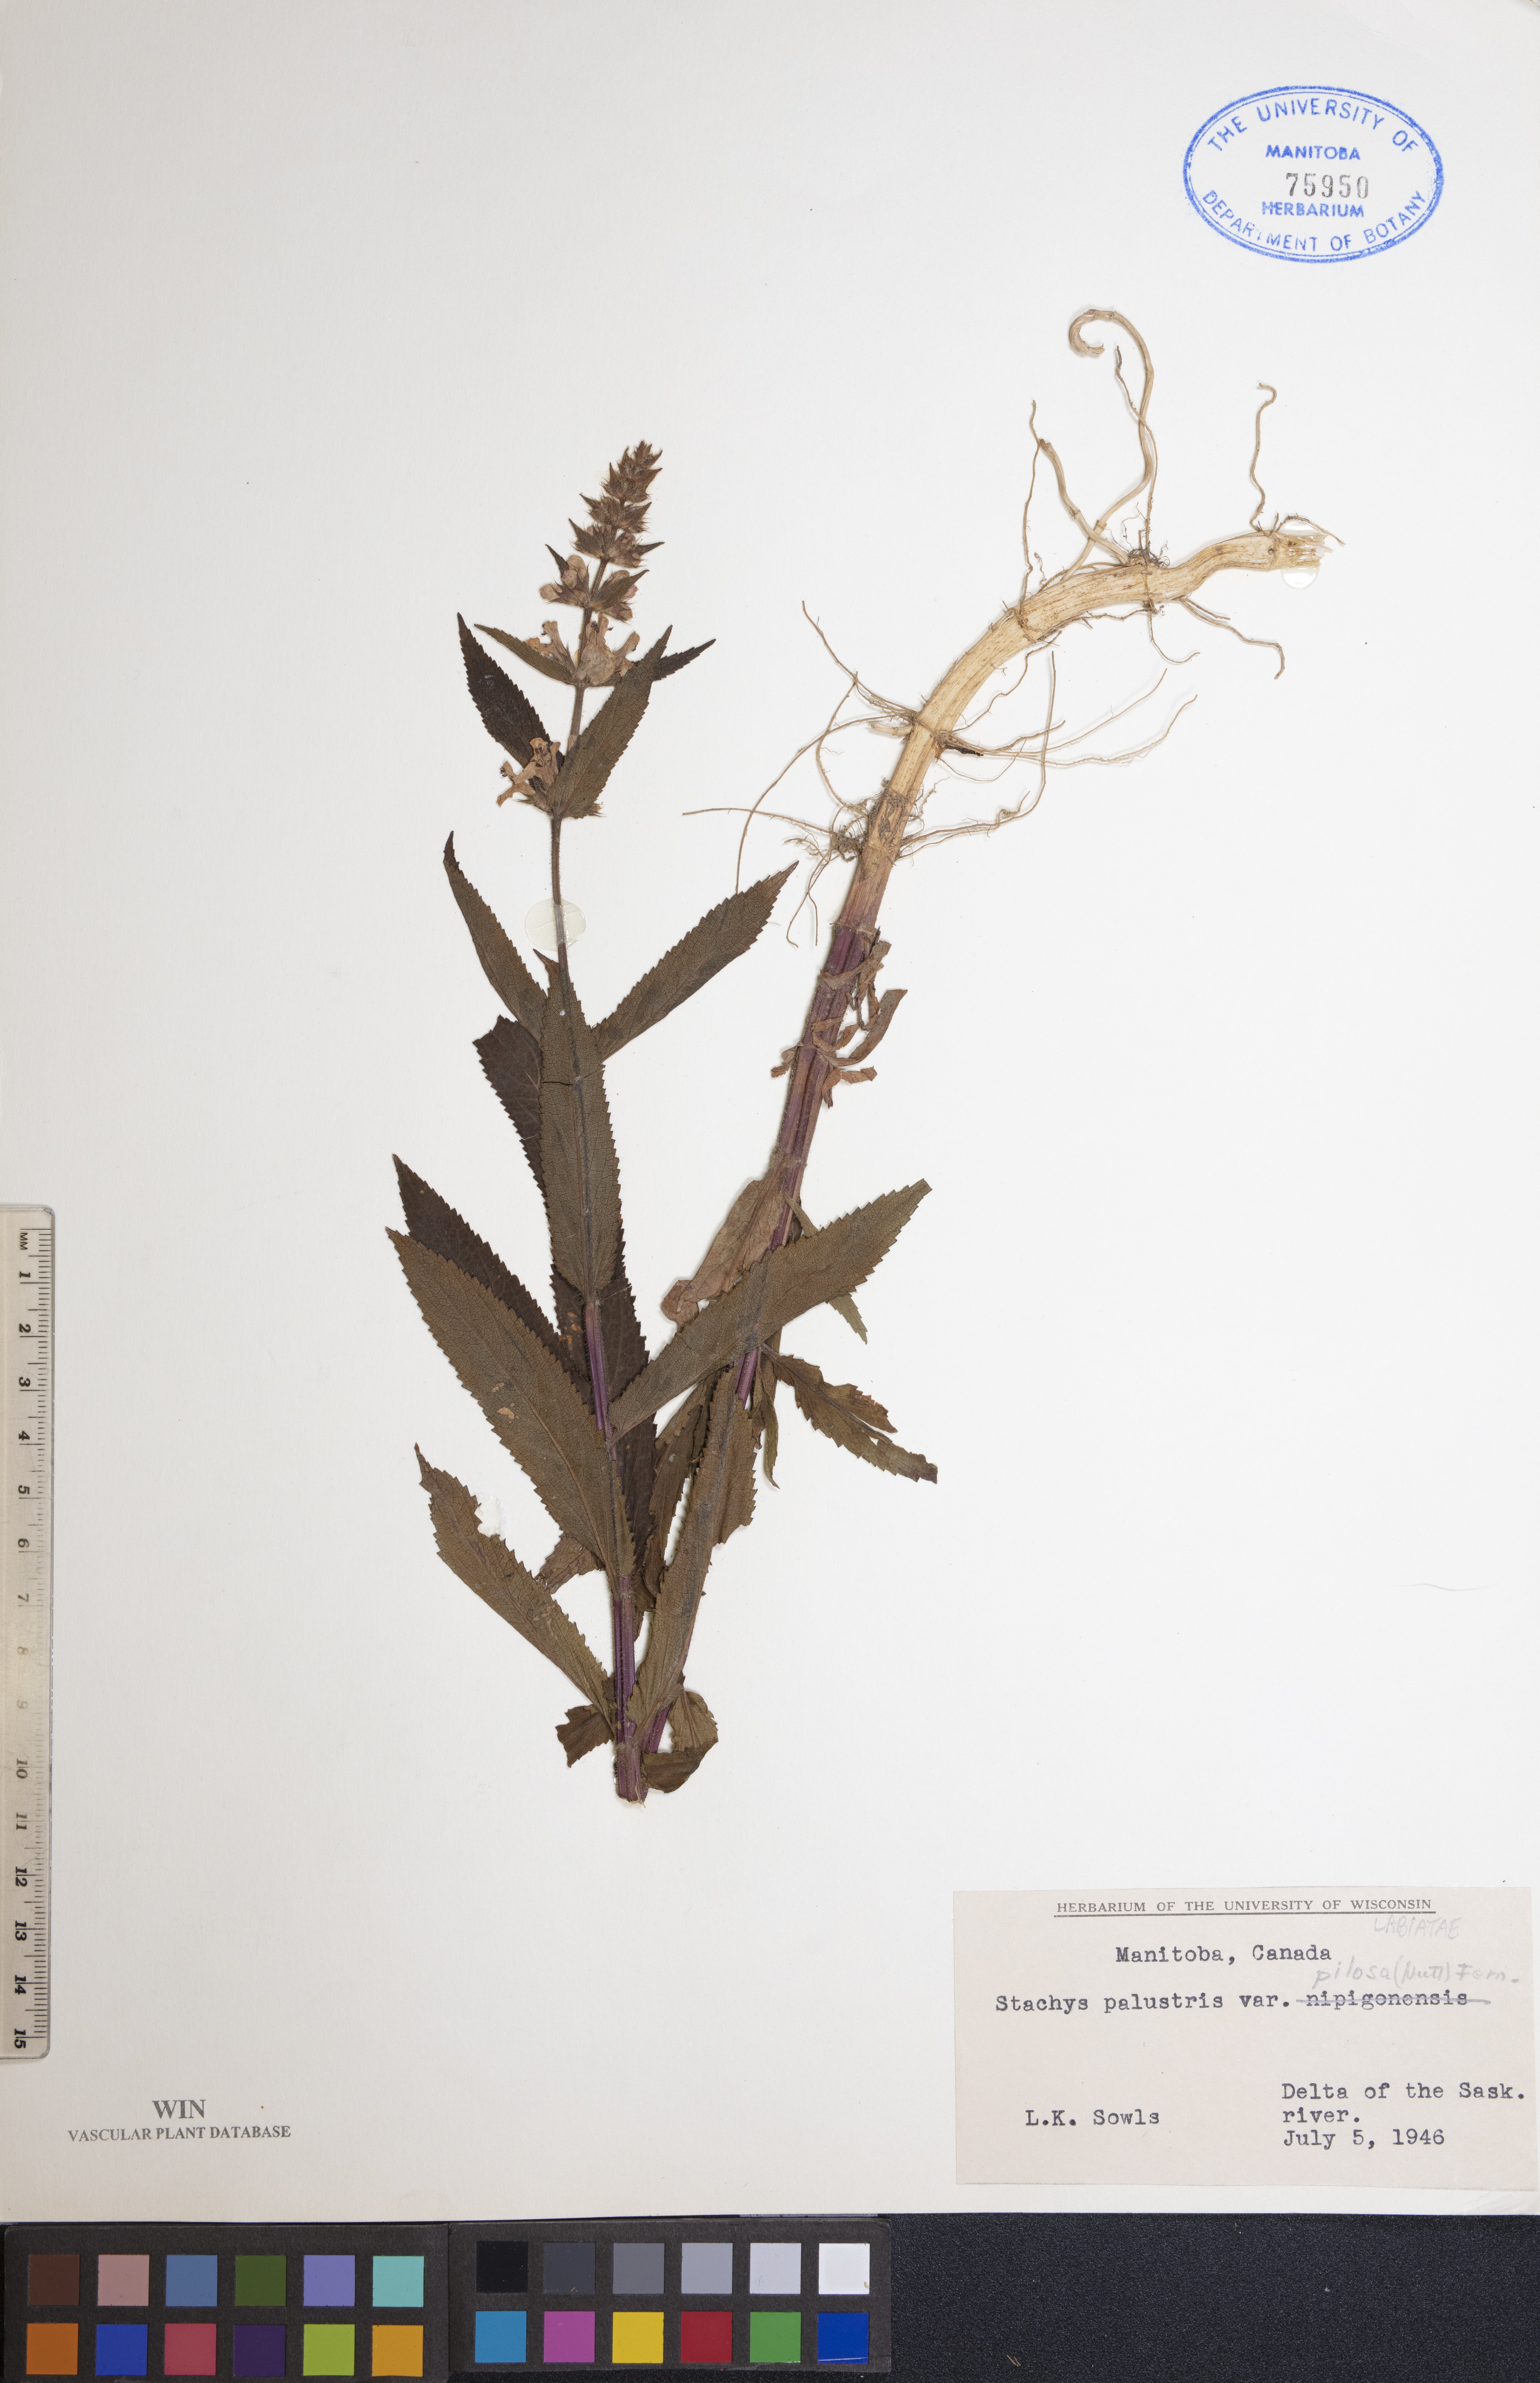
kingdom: Plantae
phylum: Tracheophyta
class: Magnoliopsida
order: Lamiales
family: Lamiaceae
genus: Stachys
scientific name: Stachys pilosa
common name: Hairy hedge-nettle
